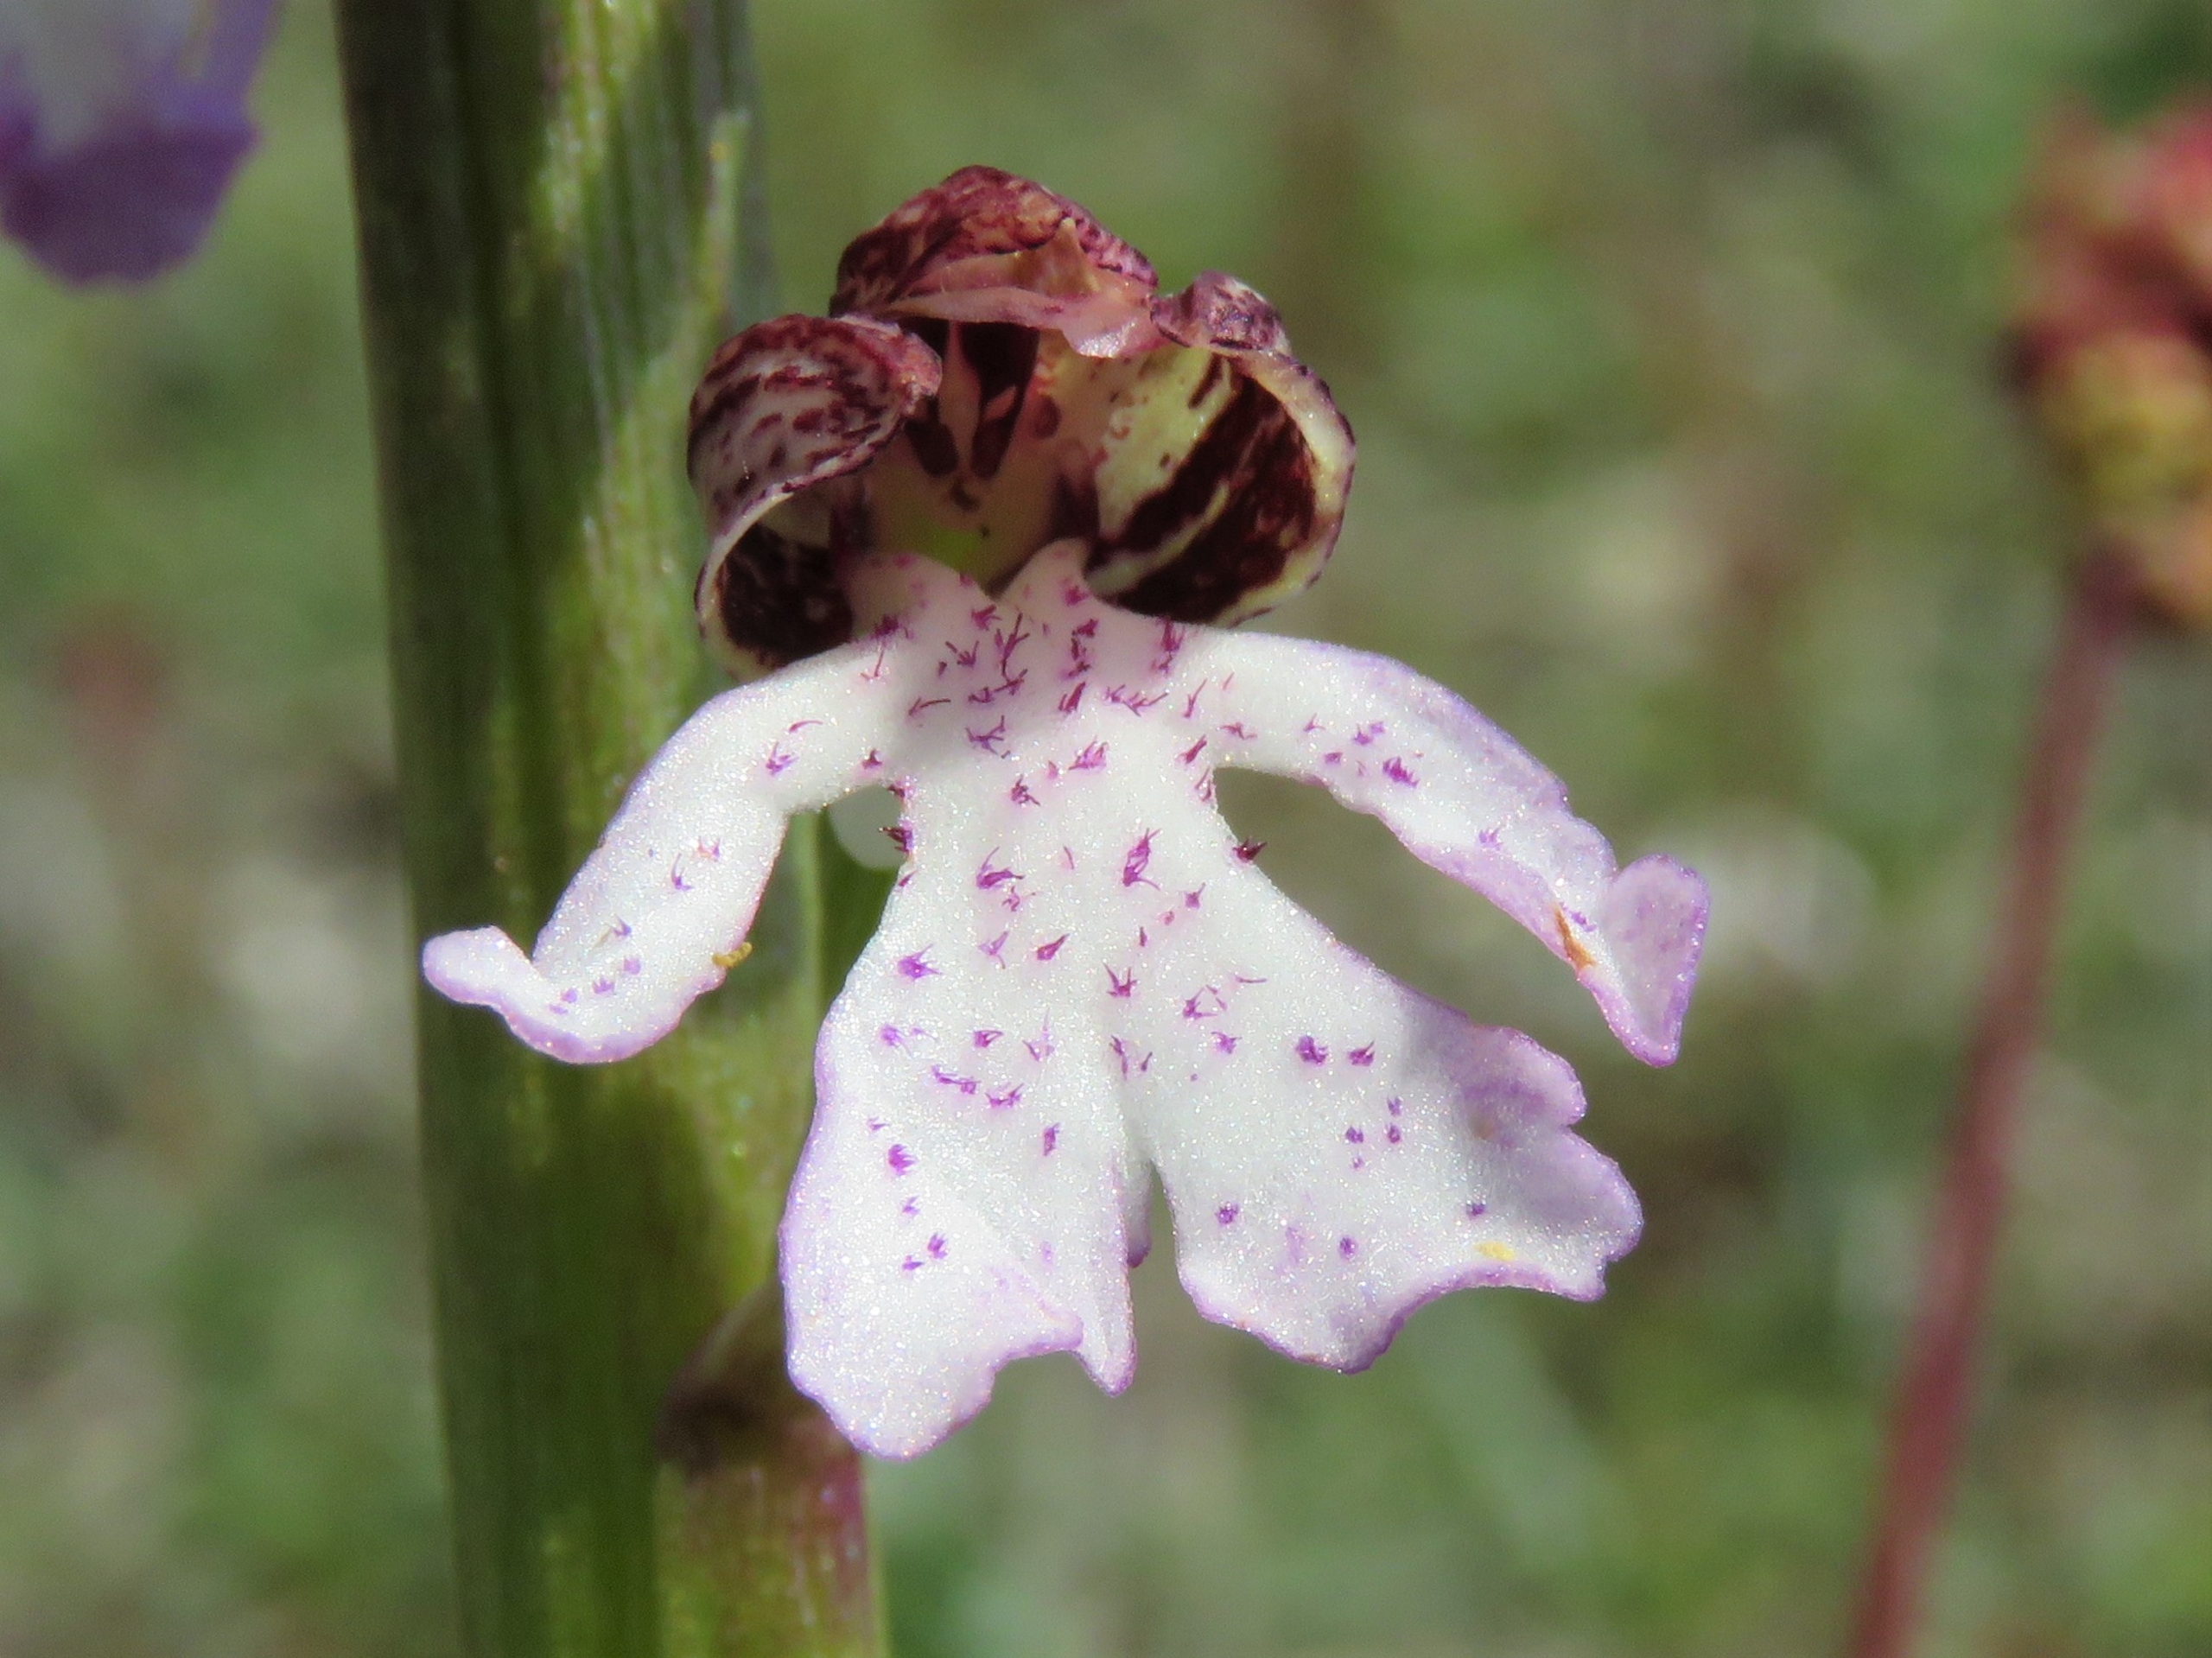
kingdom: Plantae
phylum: Tracheophyta
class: Liliopsida
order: Asparagales
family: Orchidaceae
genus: Orchis
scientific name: Orchis purpurea
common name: Stor gøgeurt
